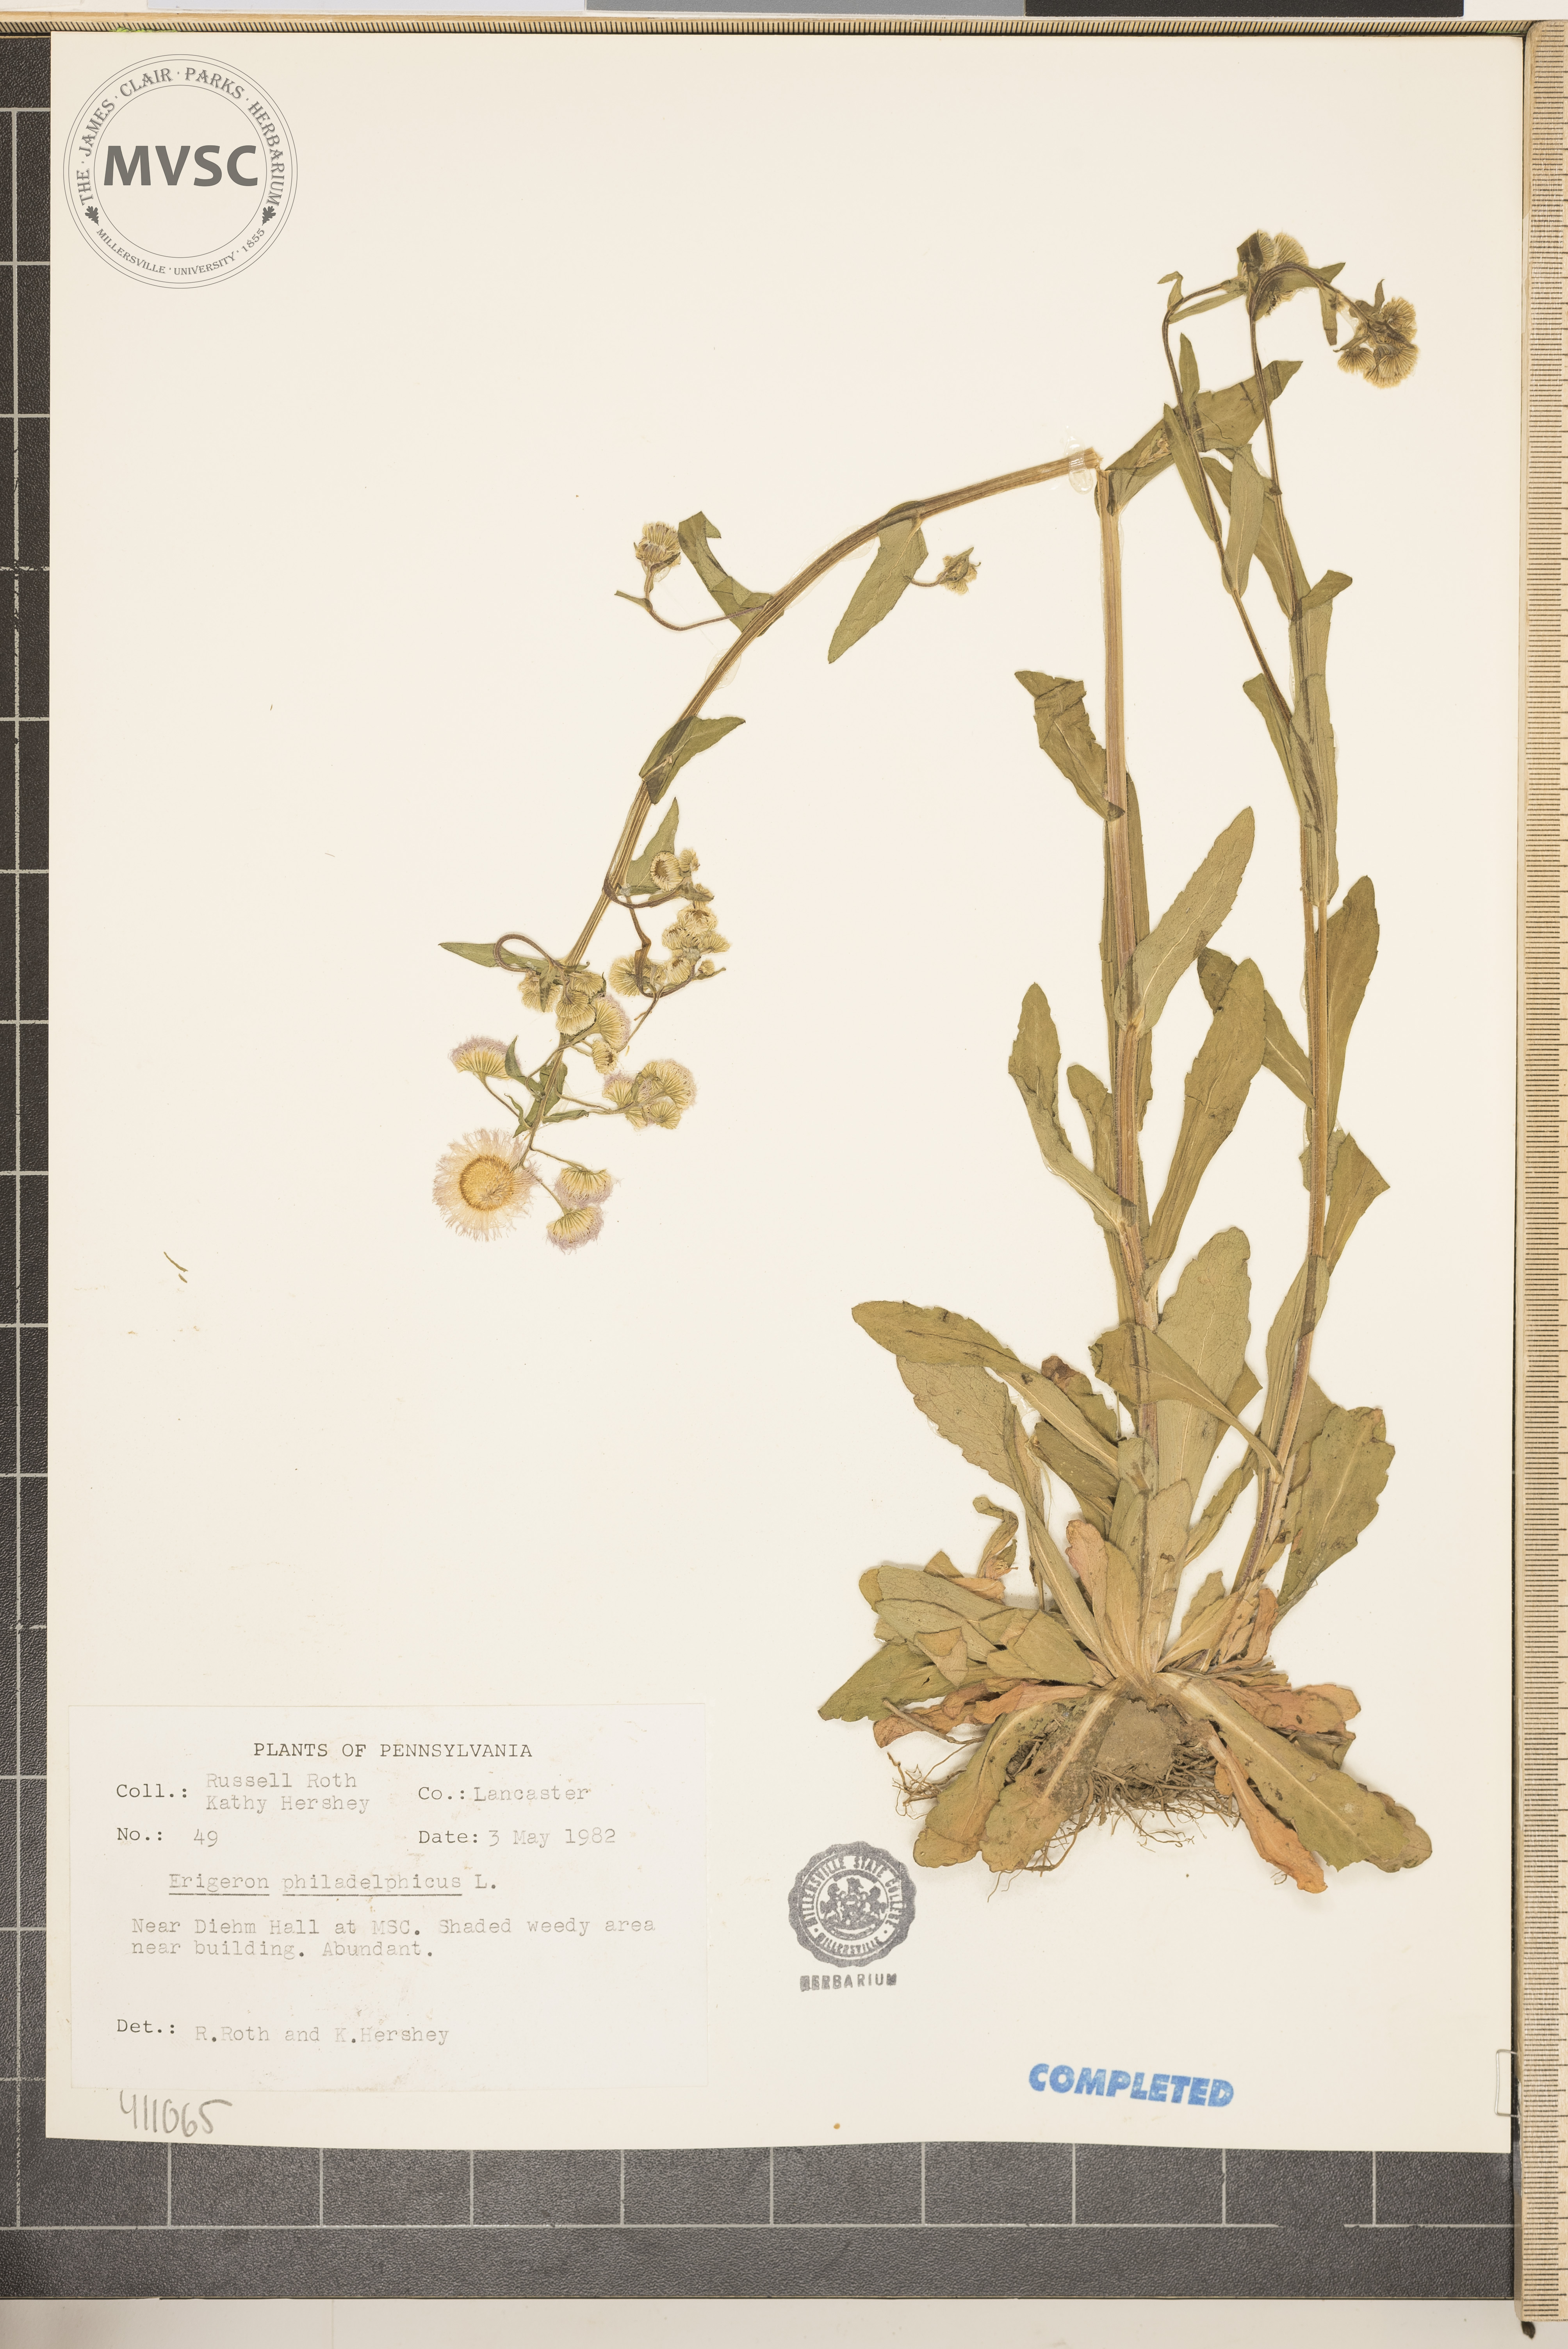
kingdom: Plantae
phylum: Tracheophyta
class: Magnoliopsida
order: Asterales
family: Asteraceae
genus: Erigeron
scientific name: Erigeron philadelphicus
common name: Robin's-plantain
